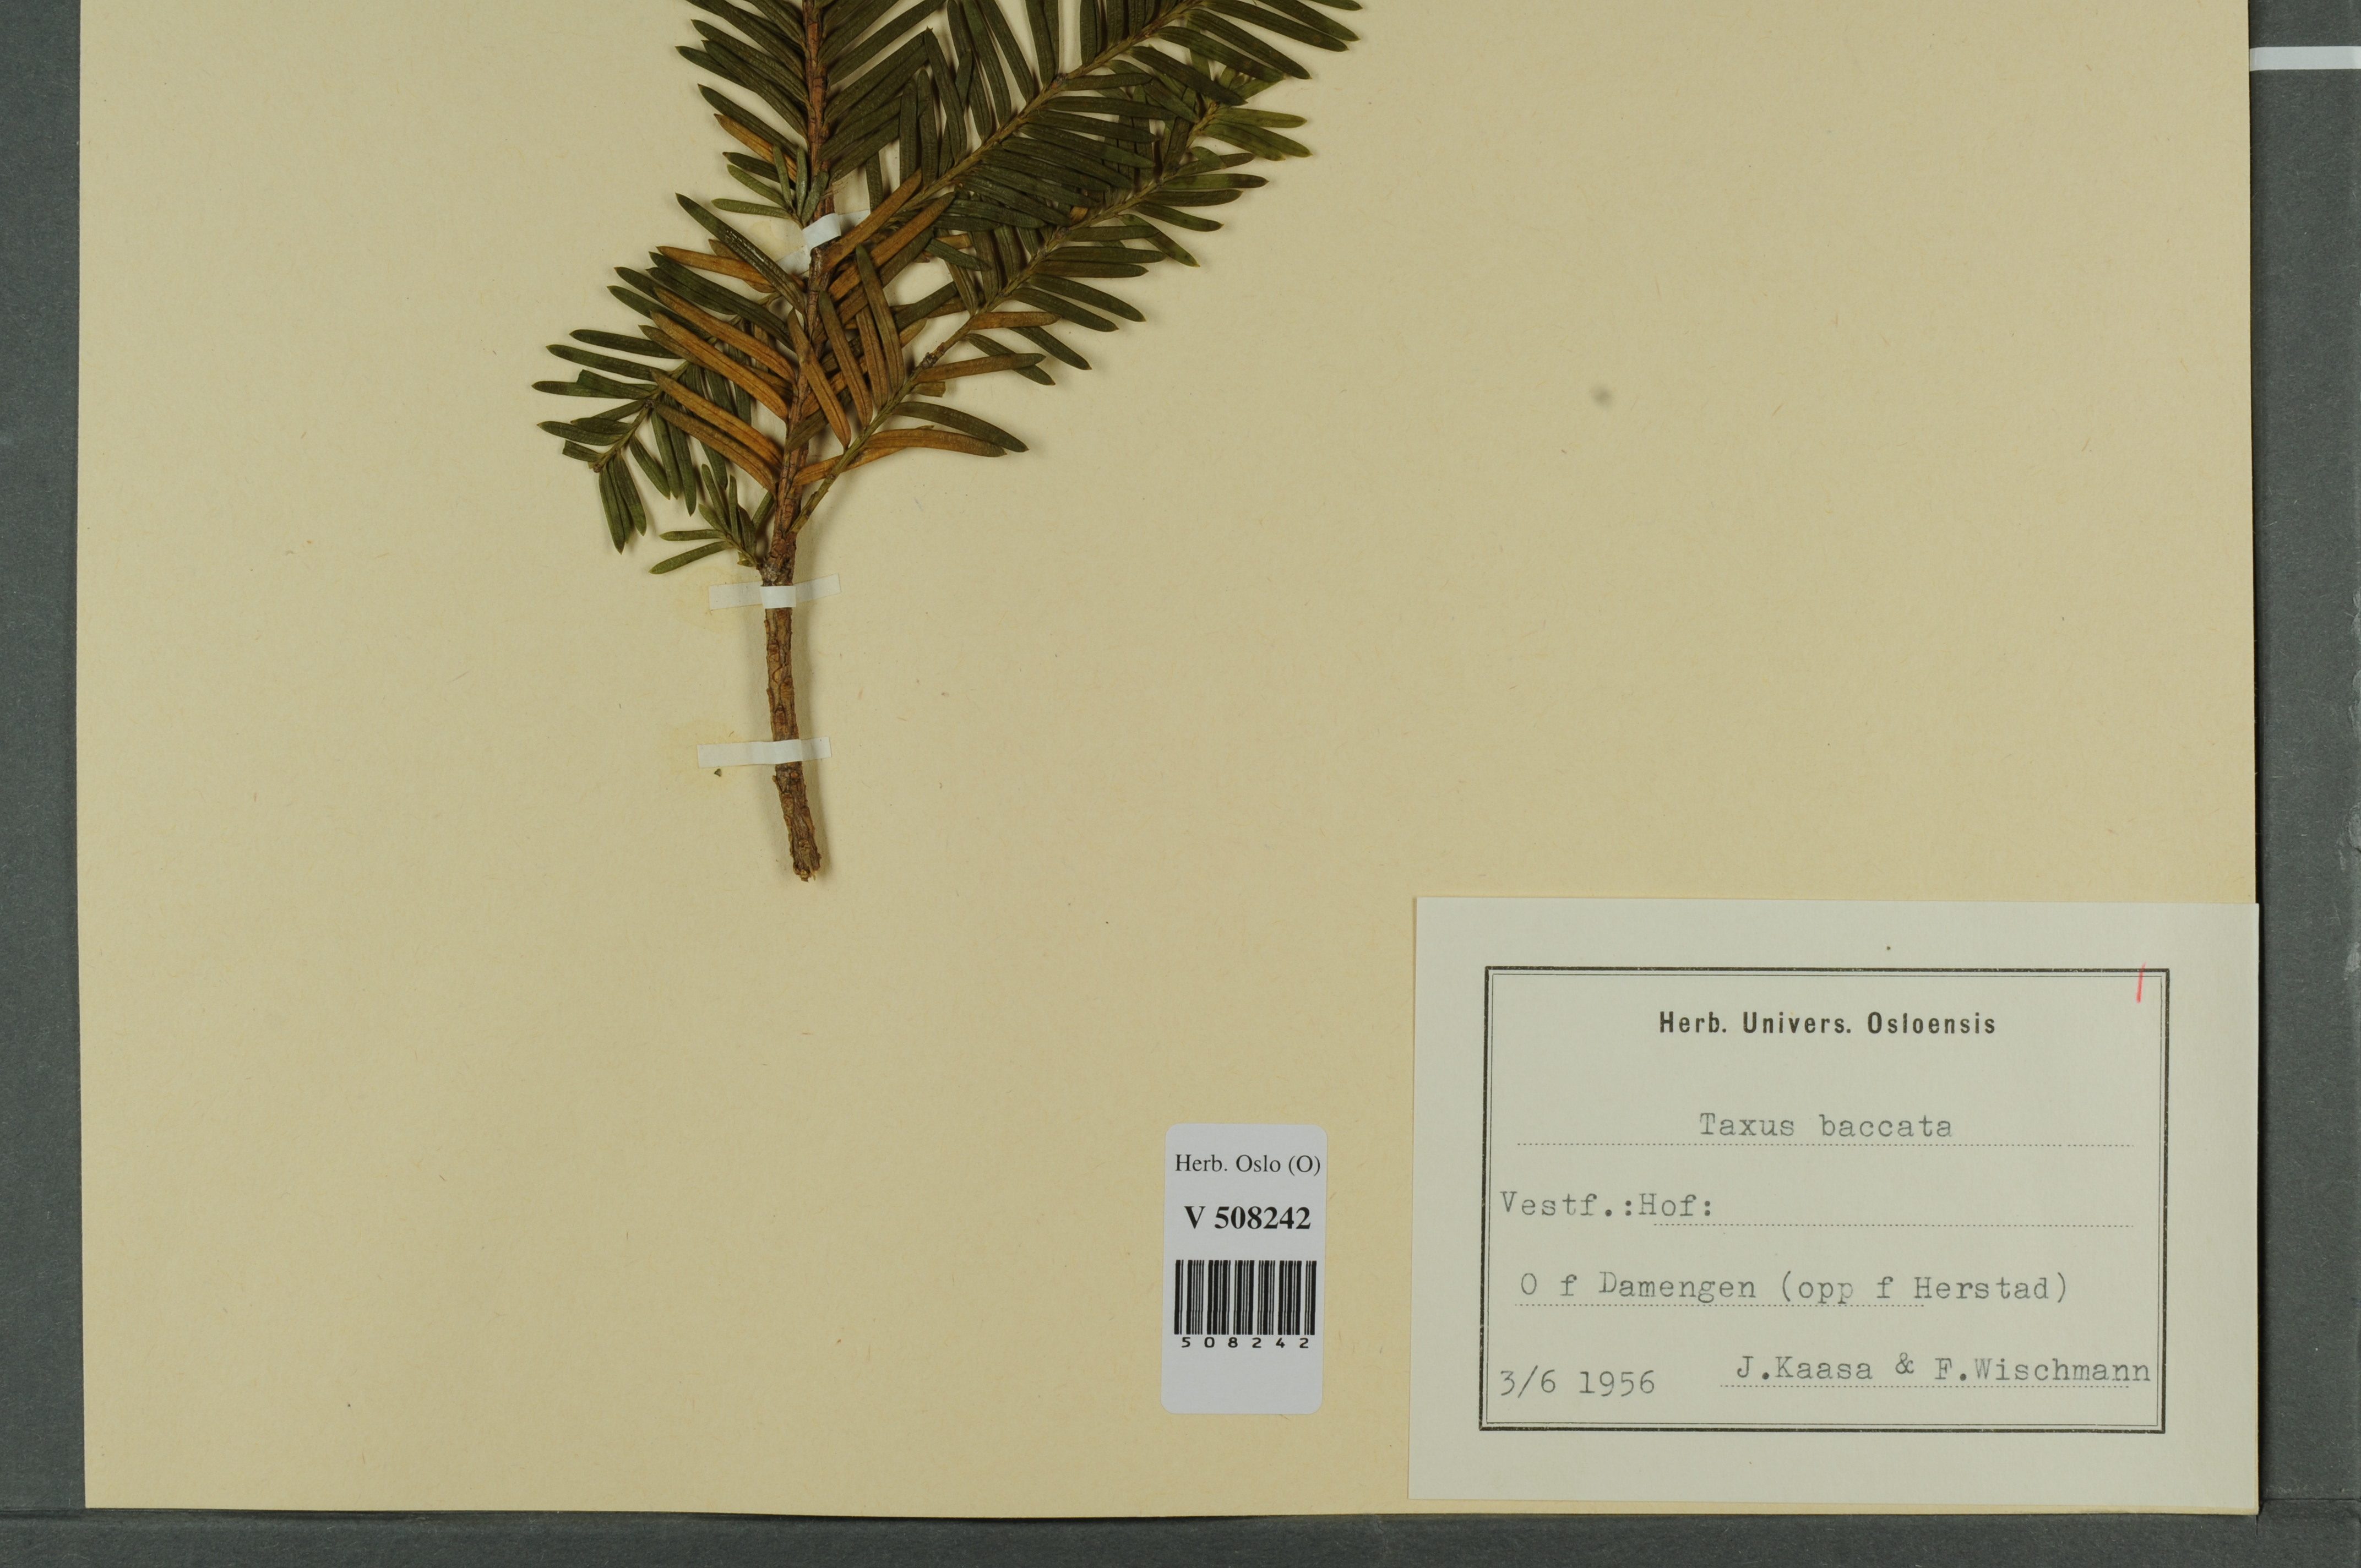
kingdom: Plantae
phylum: Tracheophyta
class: Pinopsida
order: Pinales
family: Taxaceae
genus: Taxus
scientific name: Taxus baccata
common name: Yew
